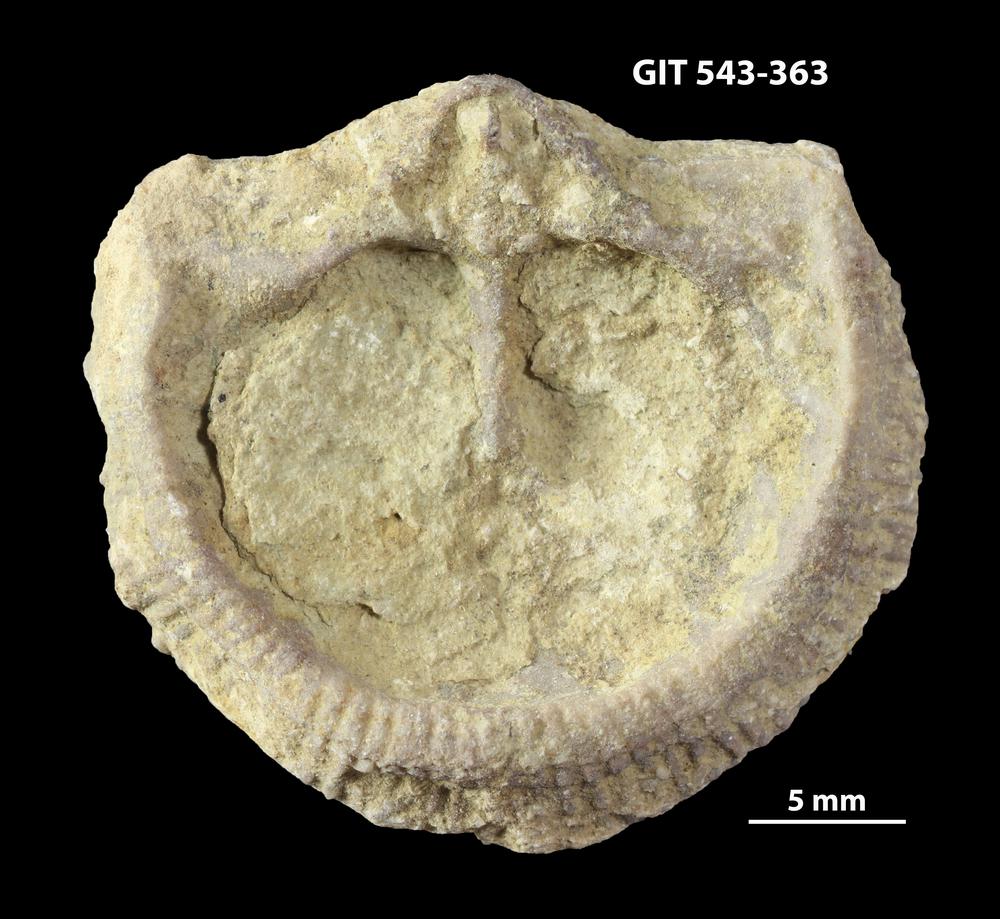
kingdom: Animalia
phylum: Brachiopoda
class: Rhynchonellata
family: Clitambonitidae
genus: Clitambonites
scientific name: Clitambonites Orthisina schmidti
